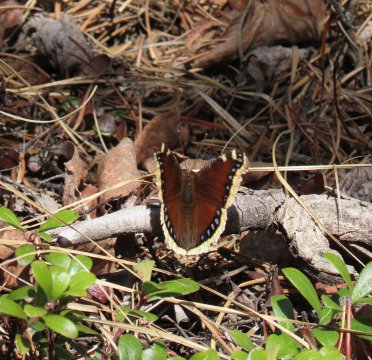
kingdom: Animalia
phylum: Arthropoda
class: Insecta
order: Lepidoptera
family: Nymphalidae
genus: Nymphalis
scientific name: Nymphalis antiopa
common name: Mourning Cloak
